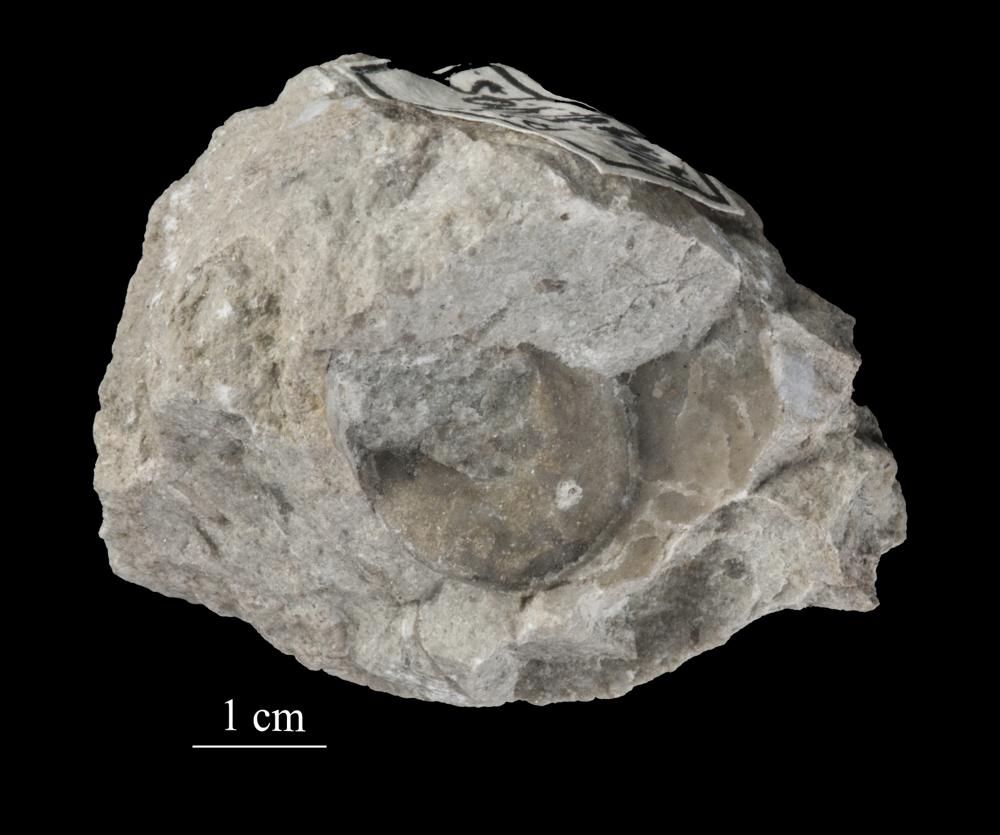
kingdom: Animalia
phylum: Mollusca
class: Gastropoda
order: Neogastropoda
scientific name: Neogastropoda
